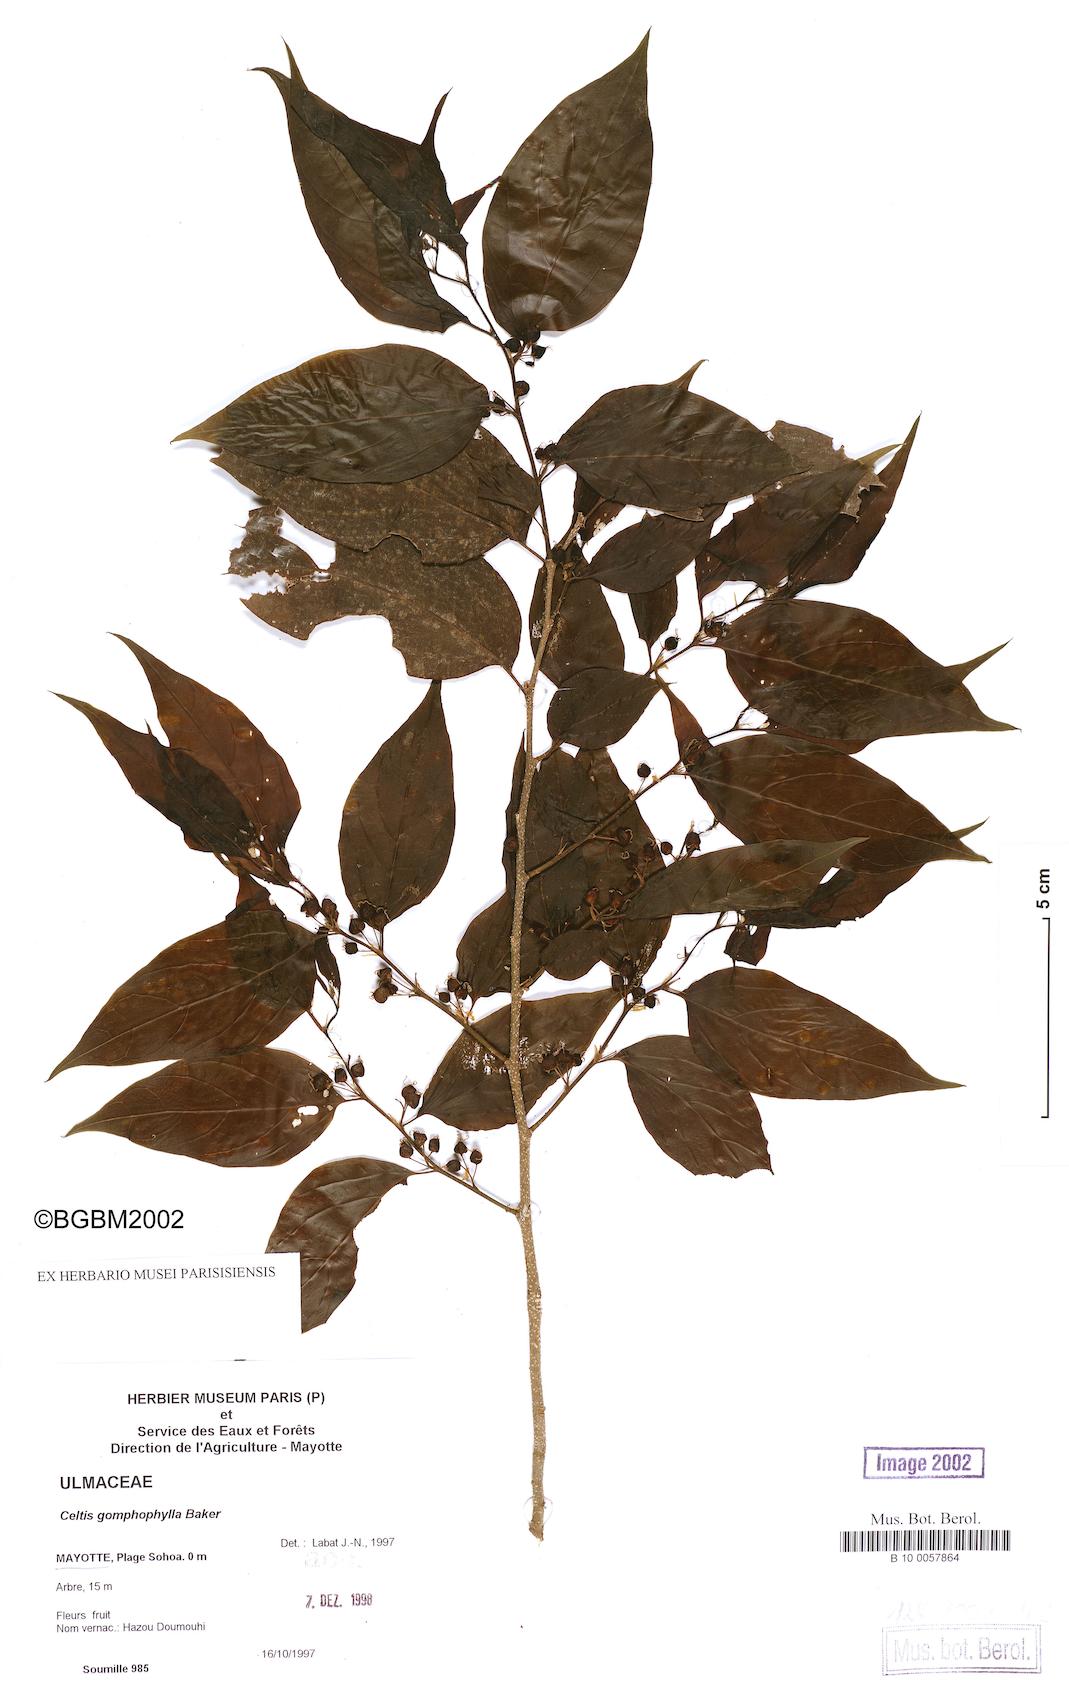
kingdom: Plantae
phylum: Tracheophyta
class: Magnoliopsida
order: Rosales
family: Cannabaceae
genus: Celtis
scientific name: Celtis gomphophylla
